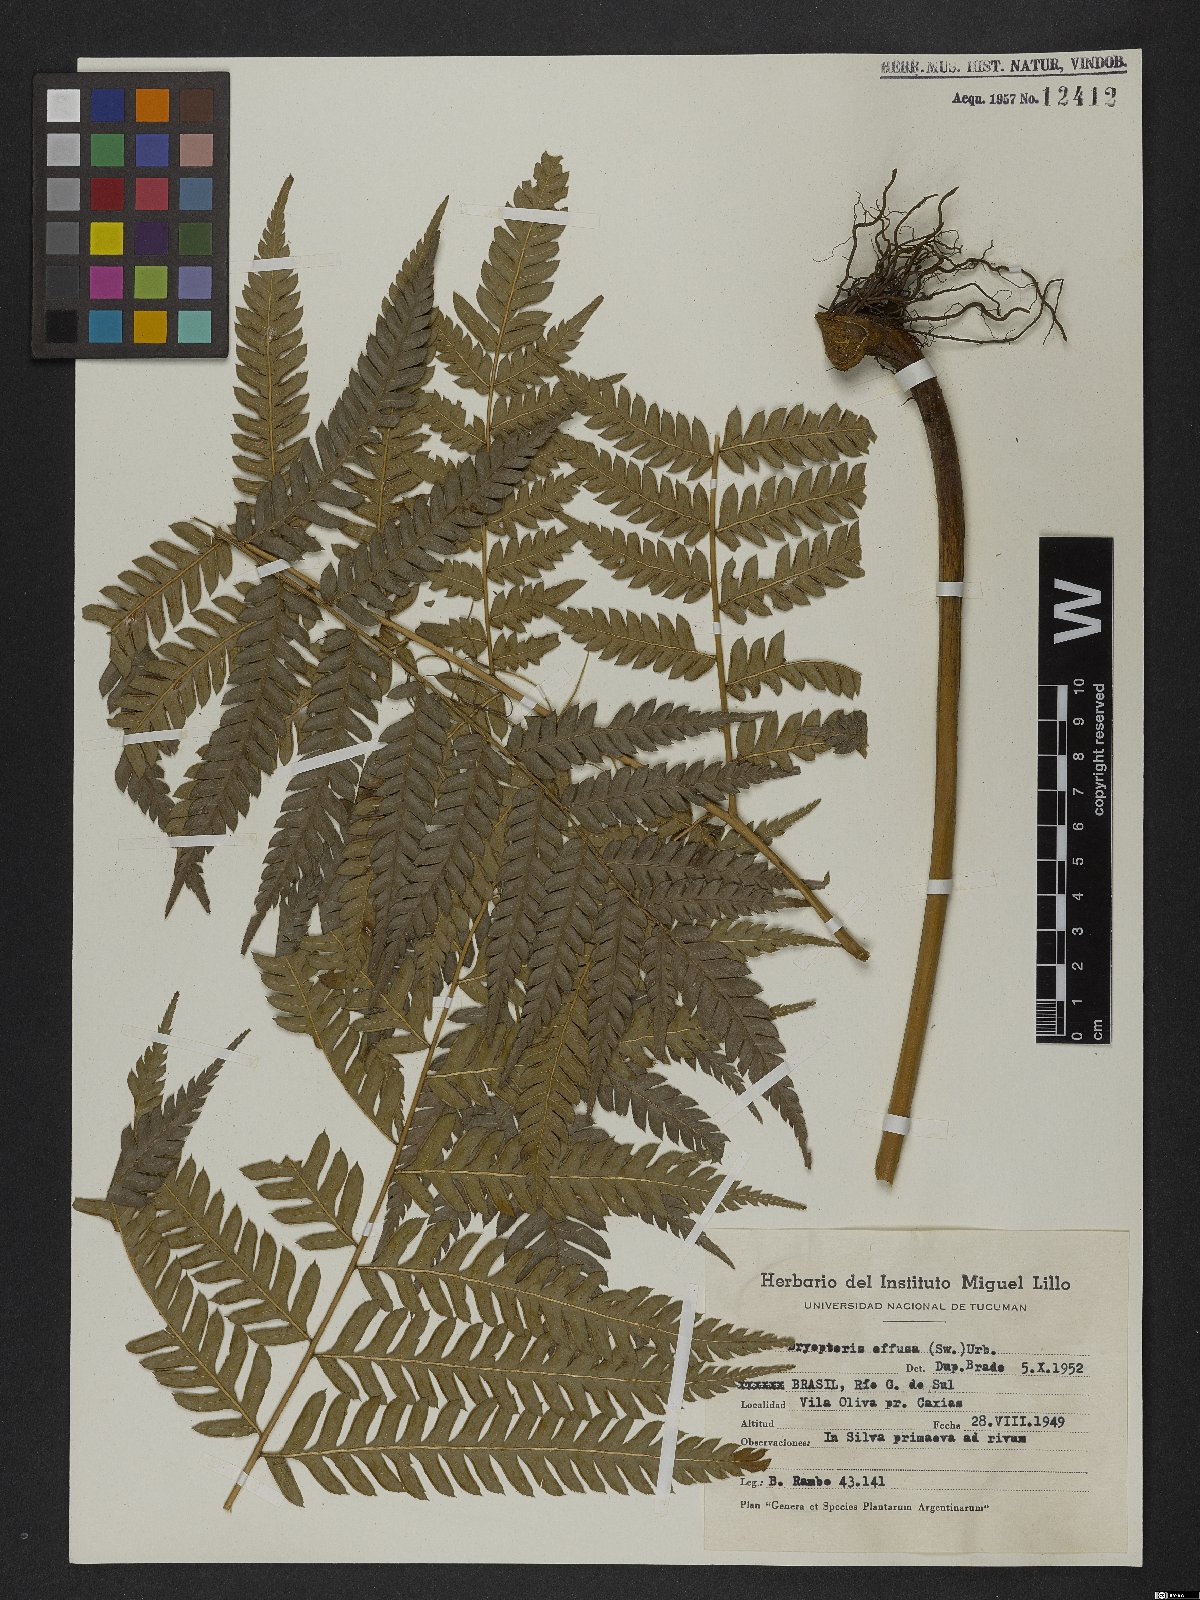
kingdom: Plantae
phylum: Tracheophyta
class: Polypodiopsida
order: Polypodiales
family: Dryopteridaceae
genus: Parapolystichum
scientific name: Parapolystichum effusum
